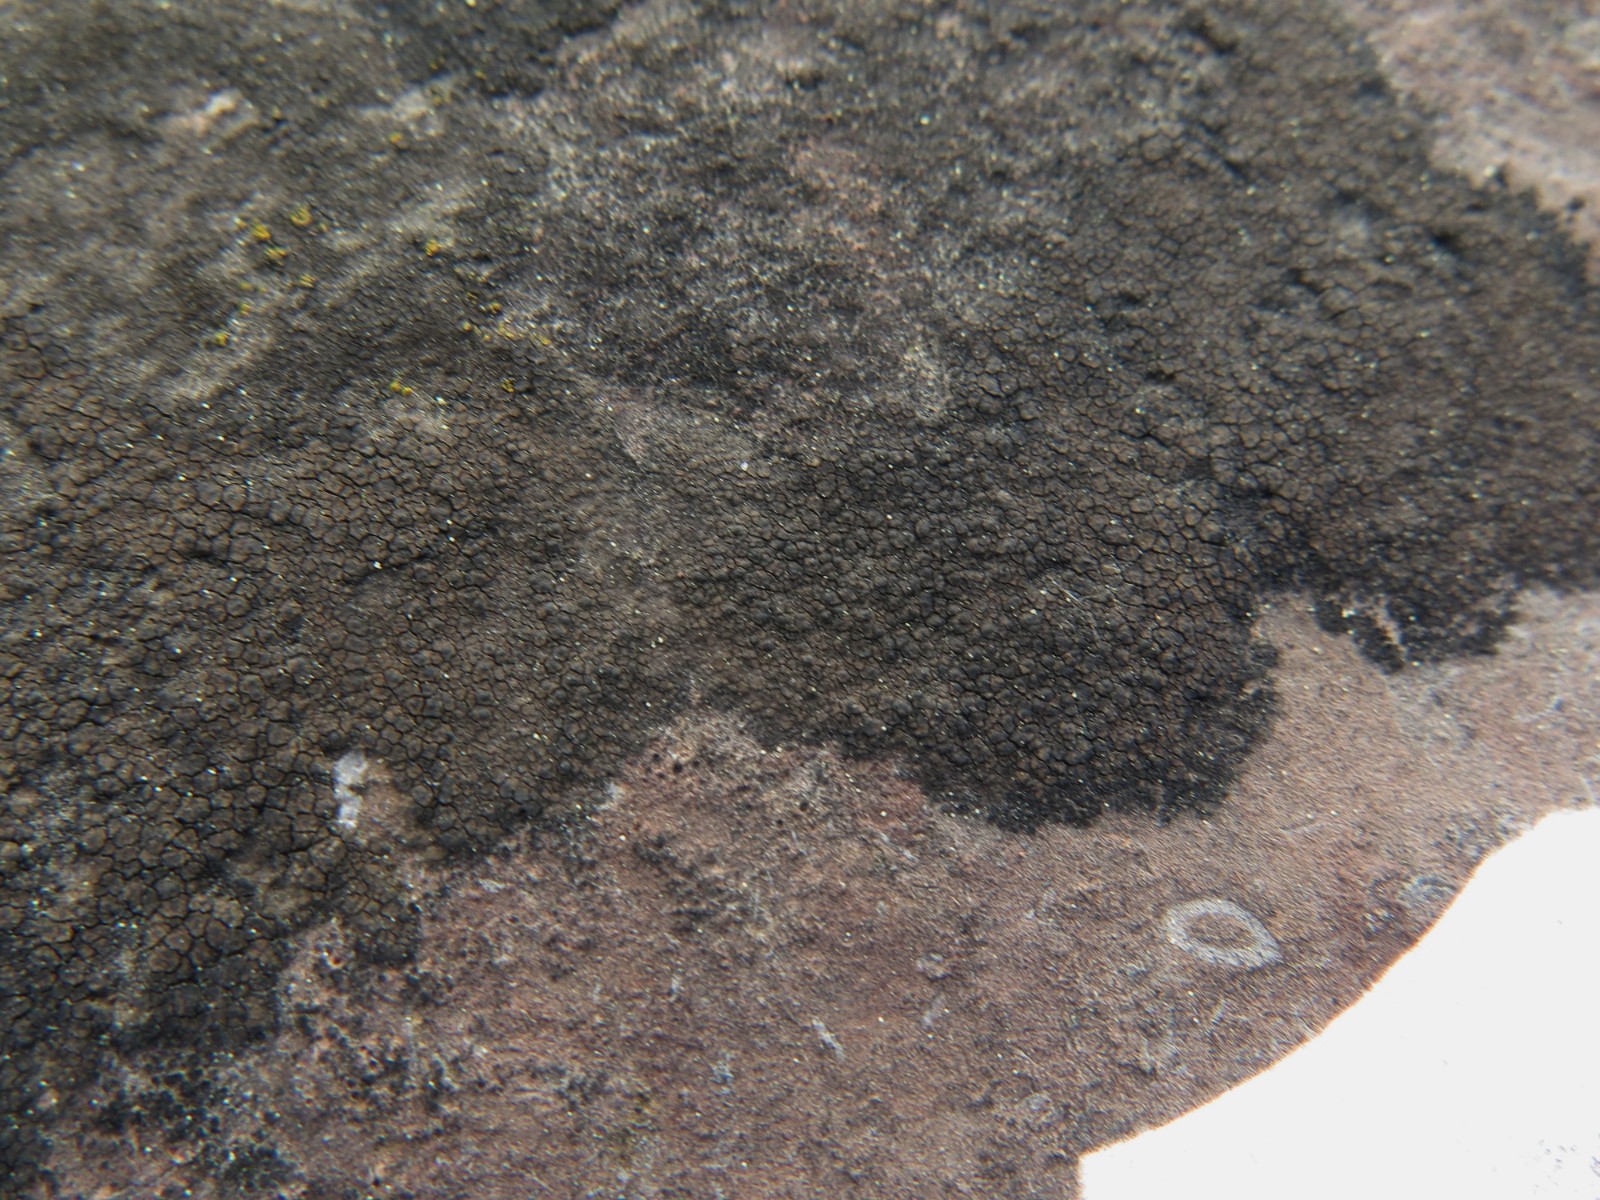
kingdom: Fungi
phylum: Ascomycota
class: Eurotiomycetes
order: Verrucariales
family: Verrucariaceae
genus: Verrucaria
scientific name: Verrucaria nigrescens
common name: sortbrun vortelav
